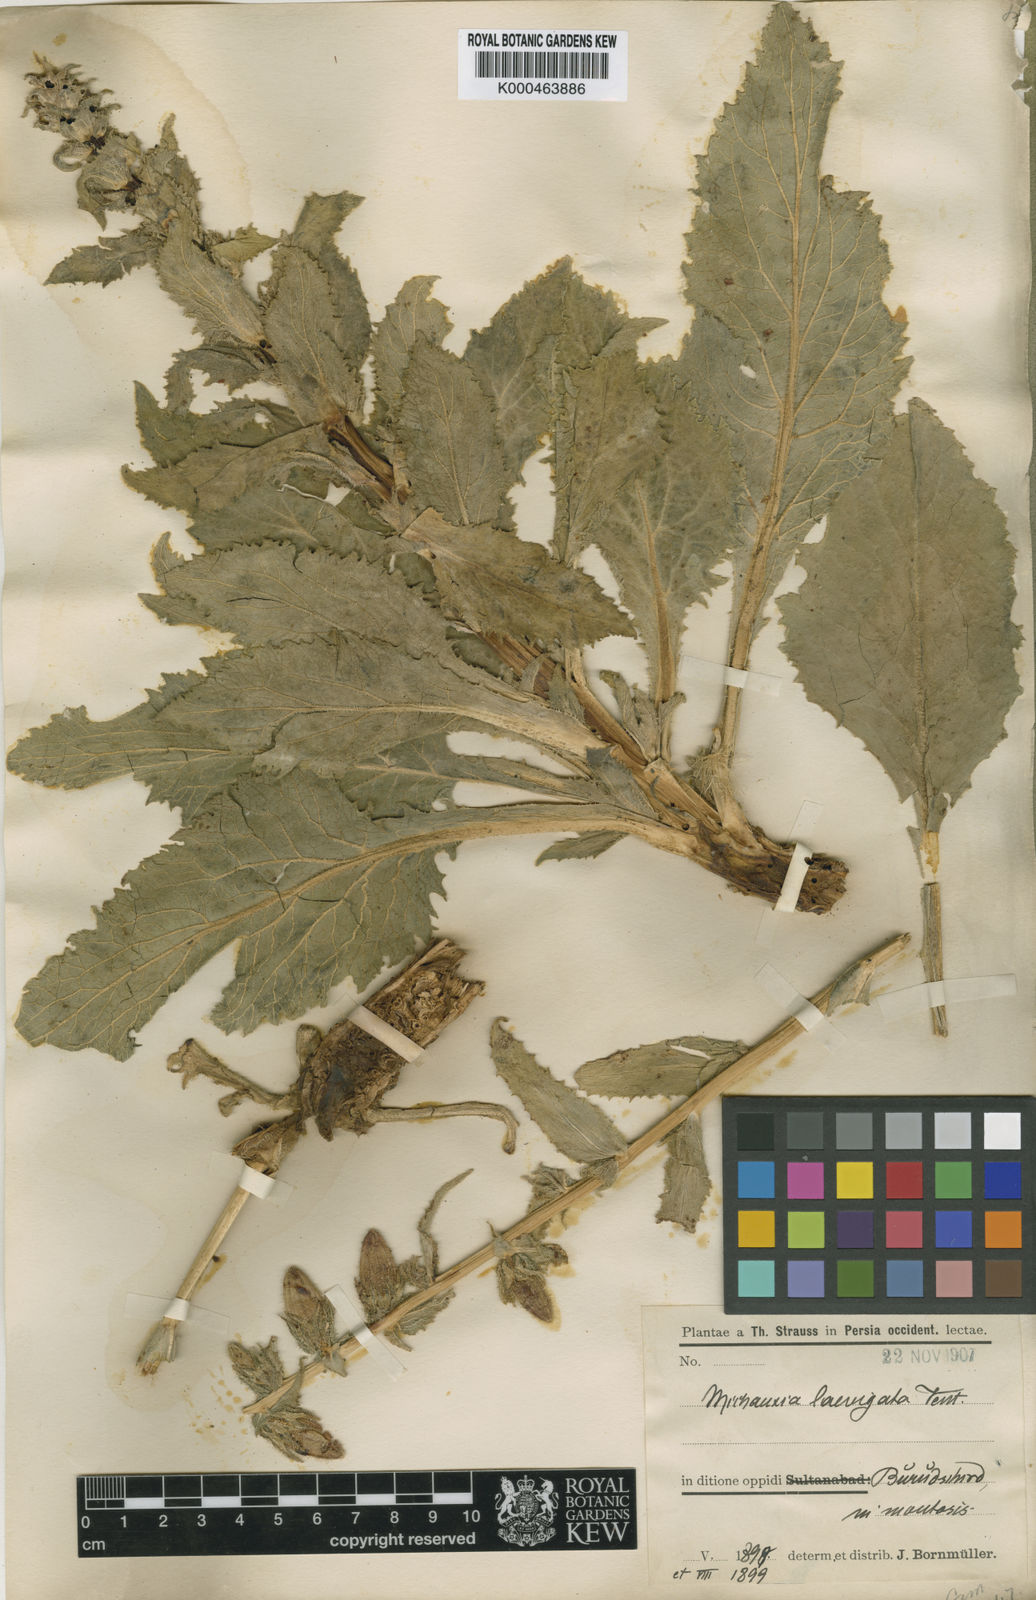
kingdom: Plantae
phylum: Tracheophyta
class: Magnoliopsida
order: Asterales
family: Campanulaceae
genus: Michauxia
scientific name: Michauxia laevigata
